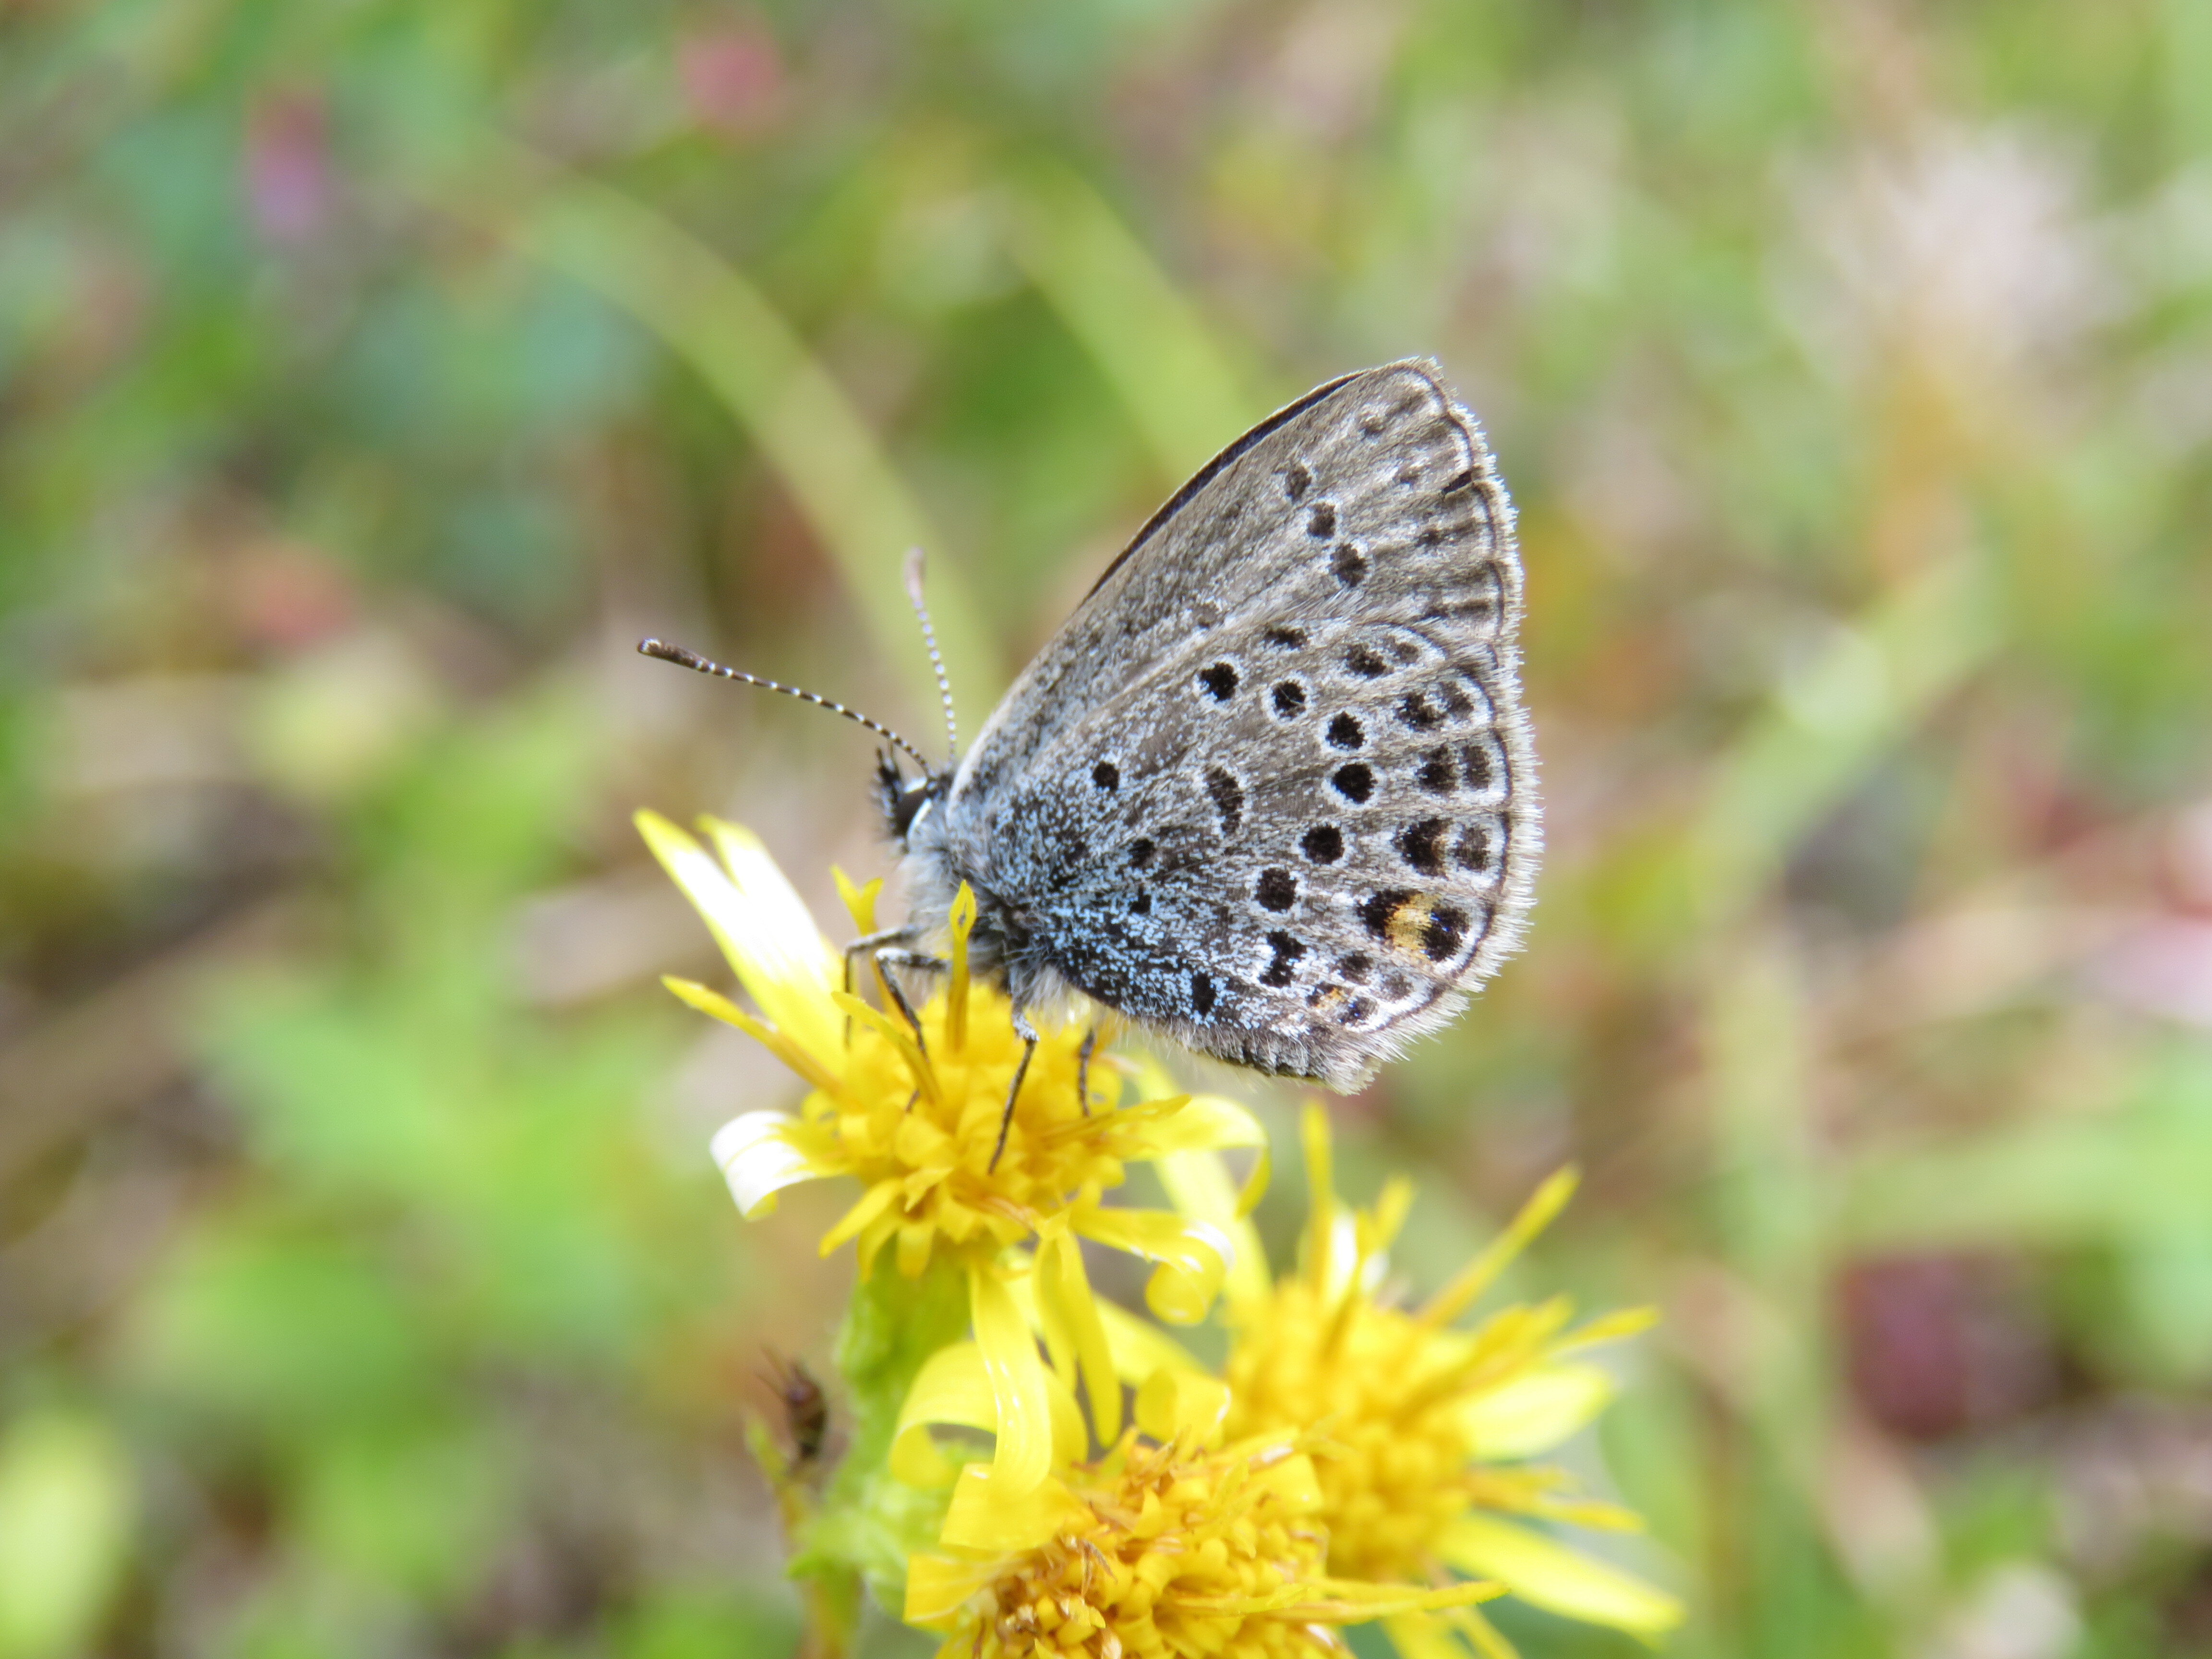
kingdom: Animalia
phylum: Arthropoda
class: Insecta
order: Lepidoptera
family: Lycaenidae
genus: Vacciniina
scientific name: Vacciniina optilete
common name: Cranberry blue
